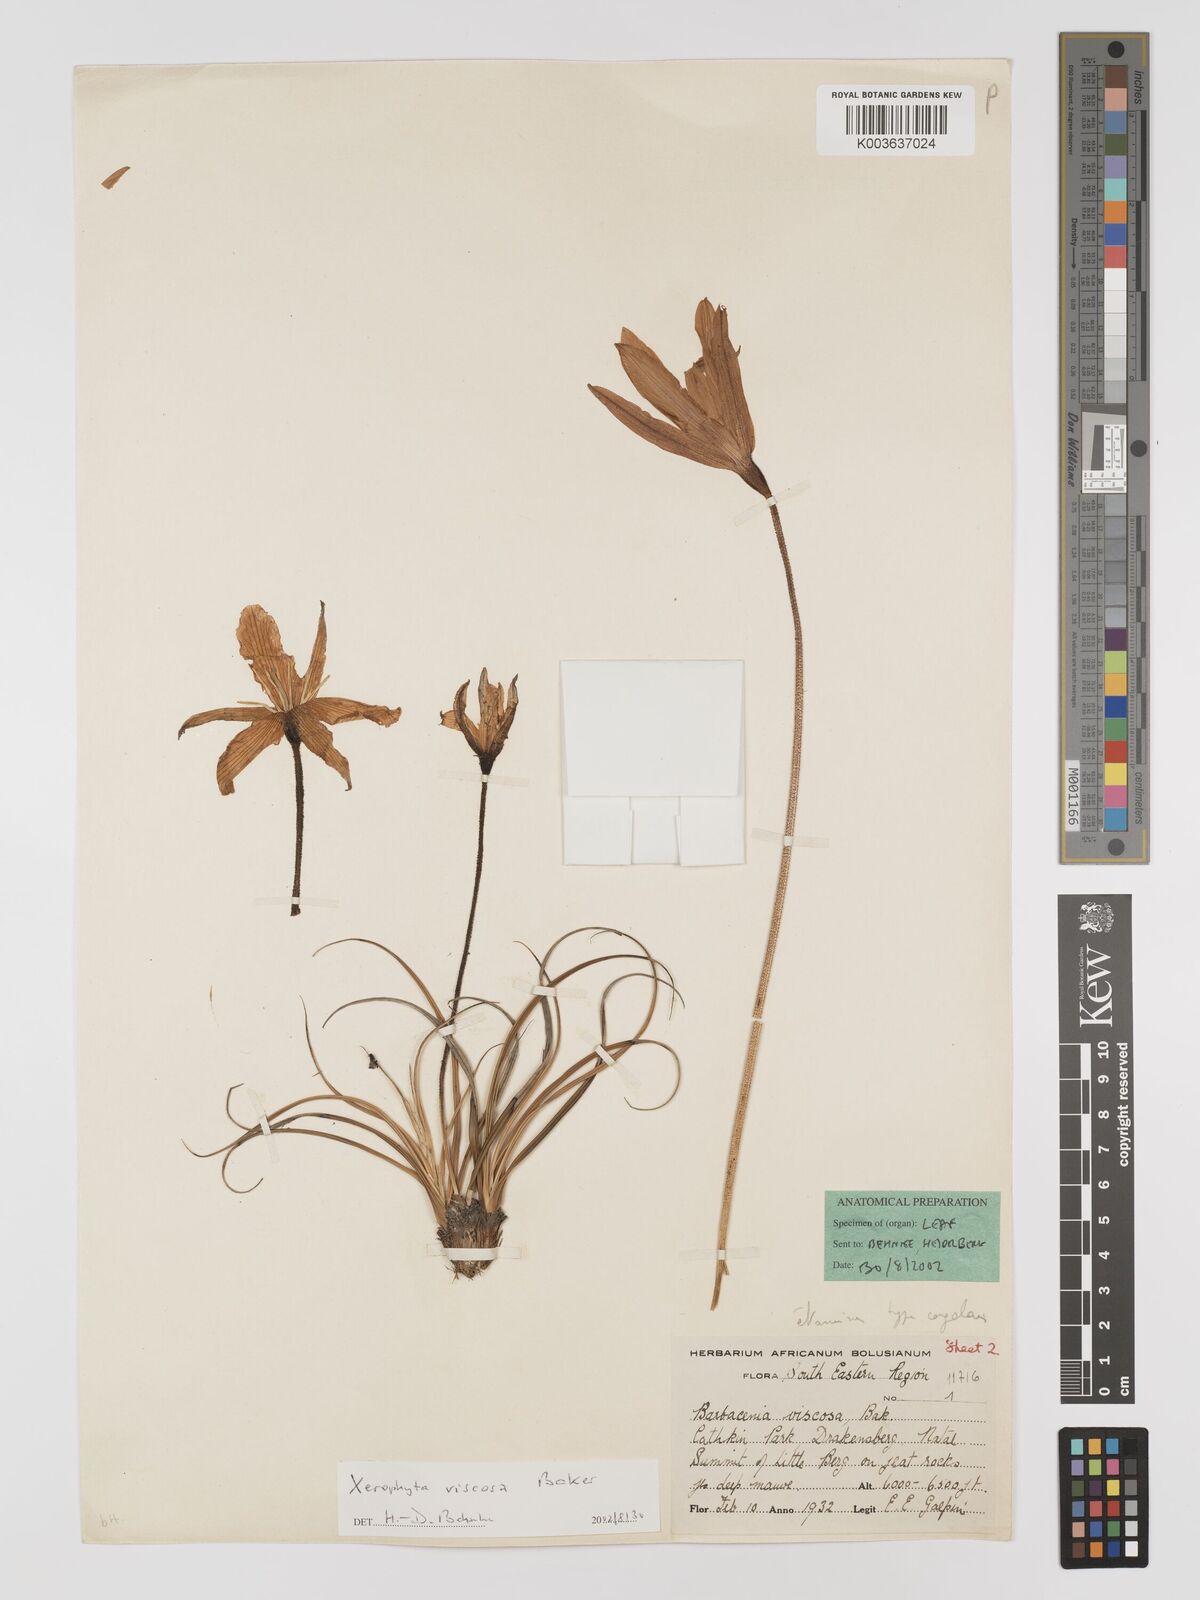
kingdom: Plantae
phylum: Tracheophyta
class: Liliopsida
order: Pandanales
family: Velloziaceae
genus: Xerophyta
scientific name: Xerophyta viscosa
